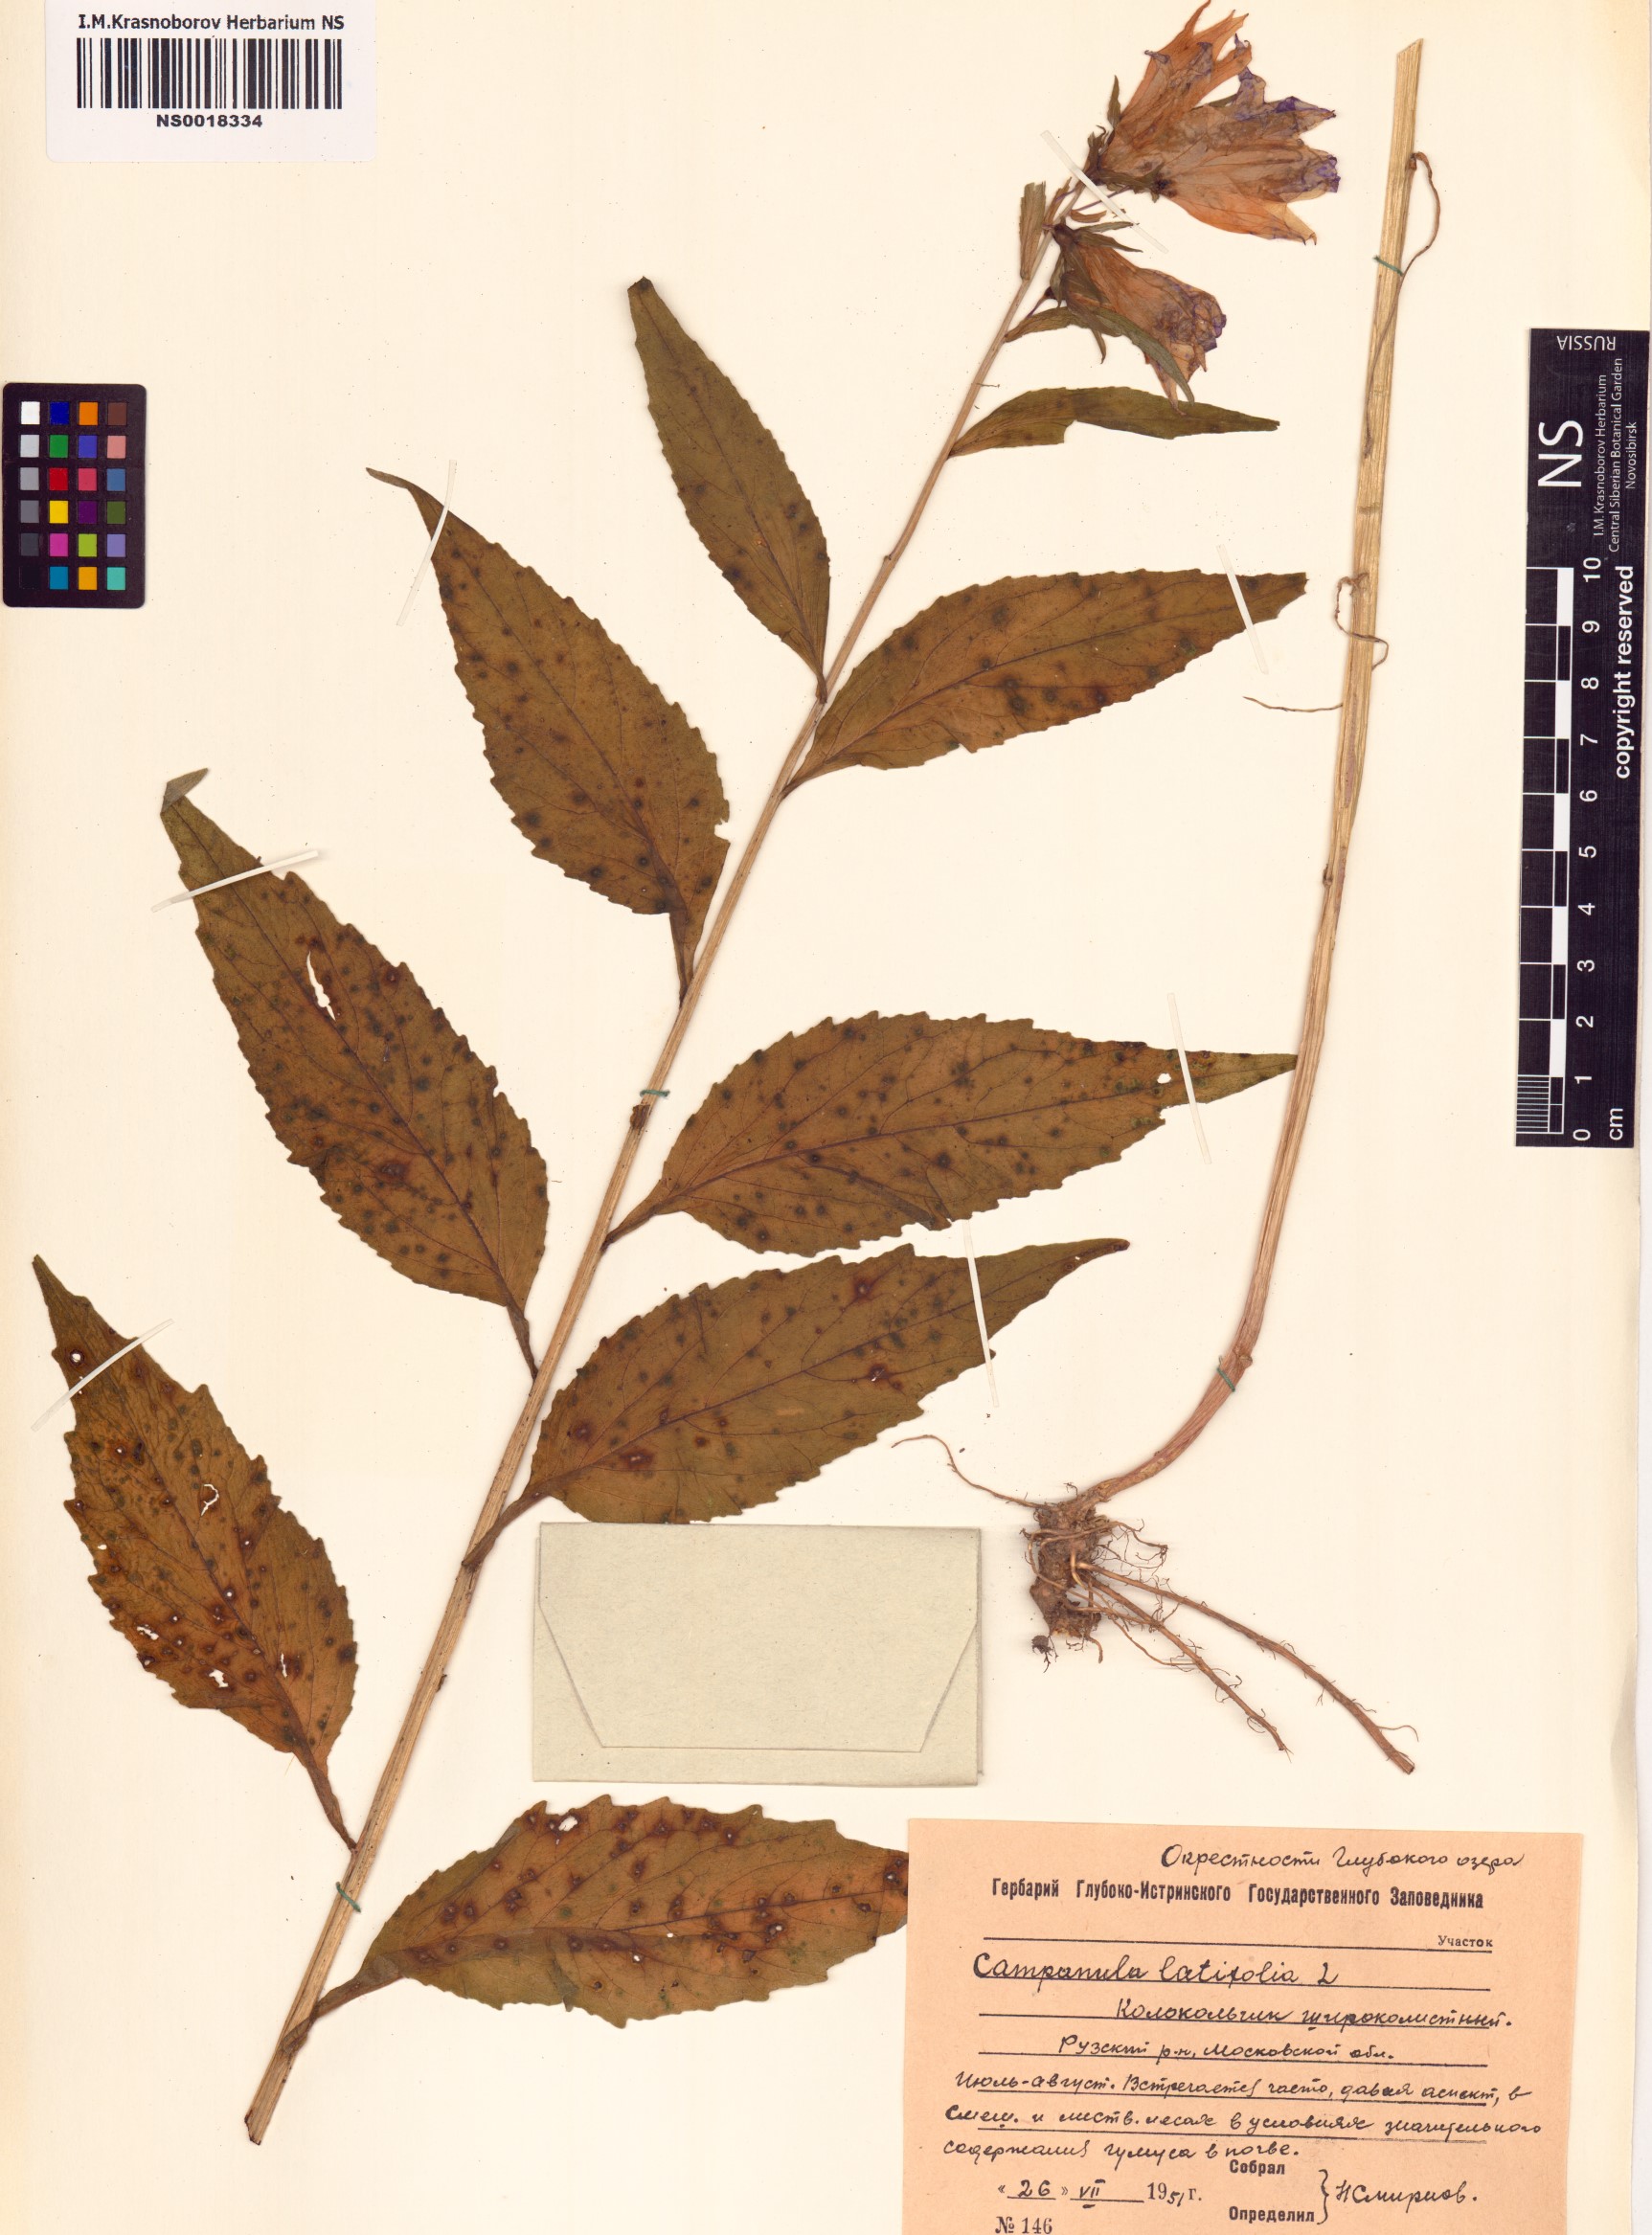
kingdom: Plantae
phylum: Tracheophyta
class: Magnoliopsida
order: Asterales
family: Campanulaceae
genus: Campanula
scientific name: Campanula latifolia
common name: Giant bellflower
